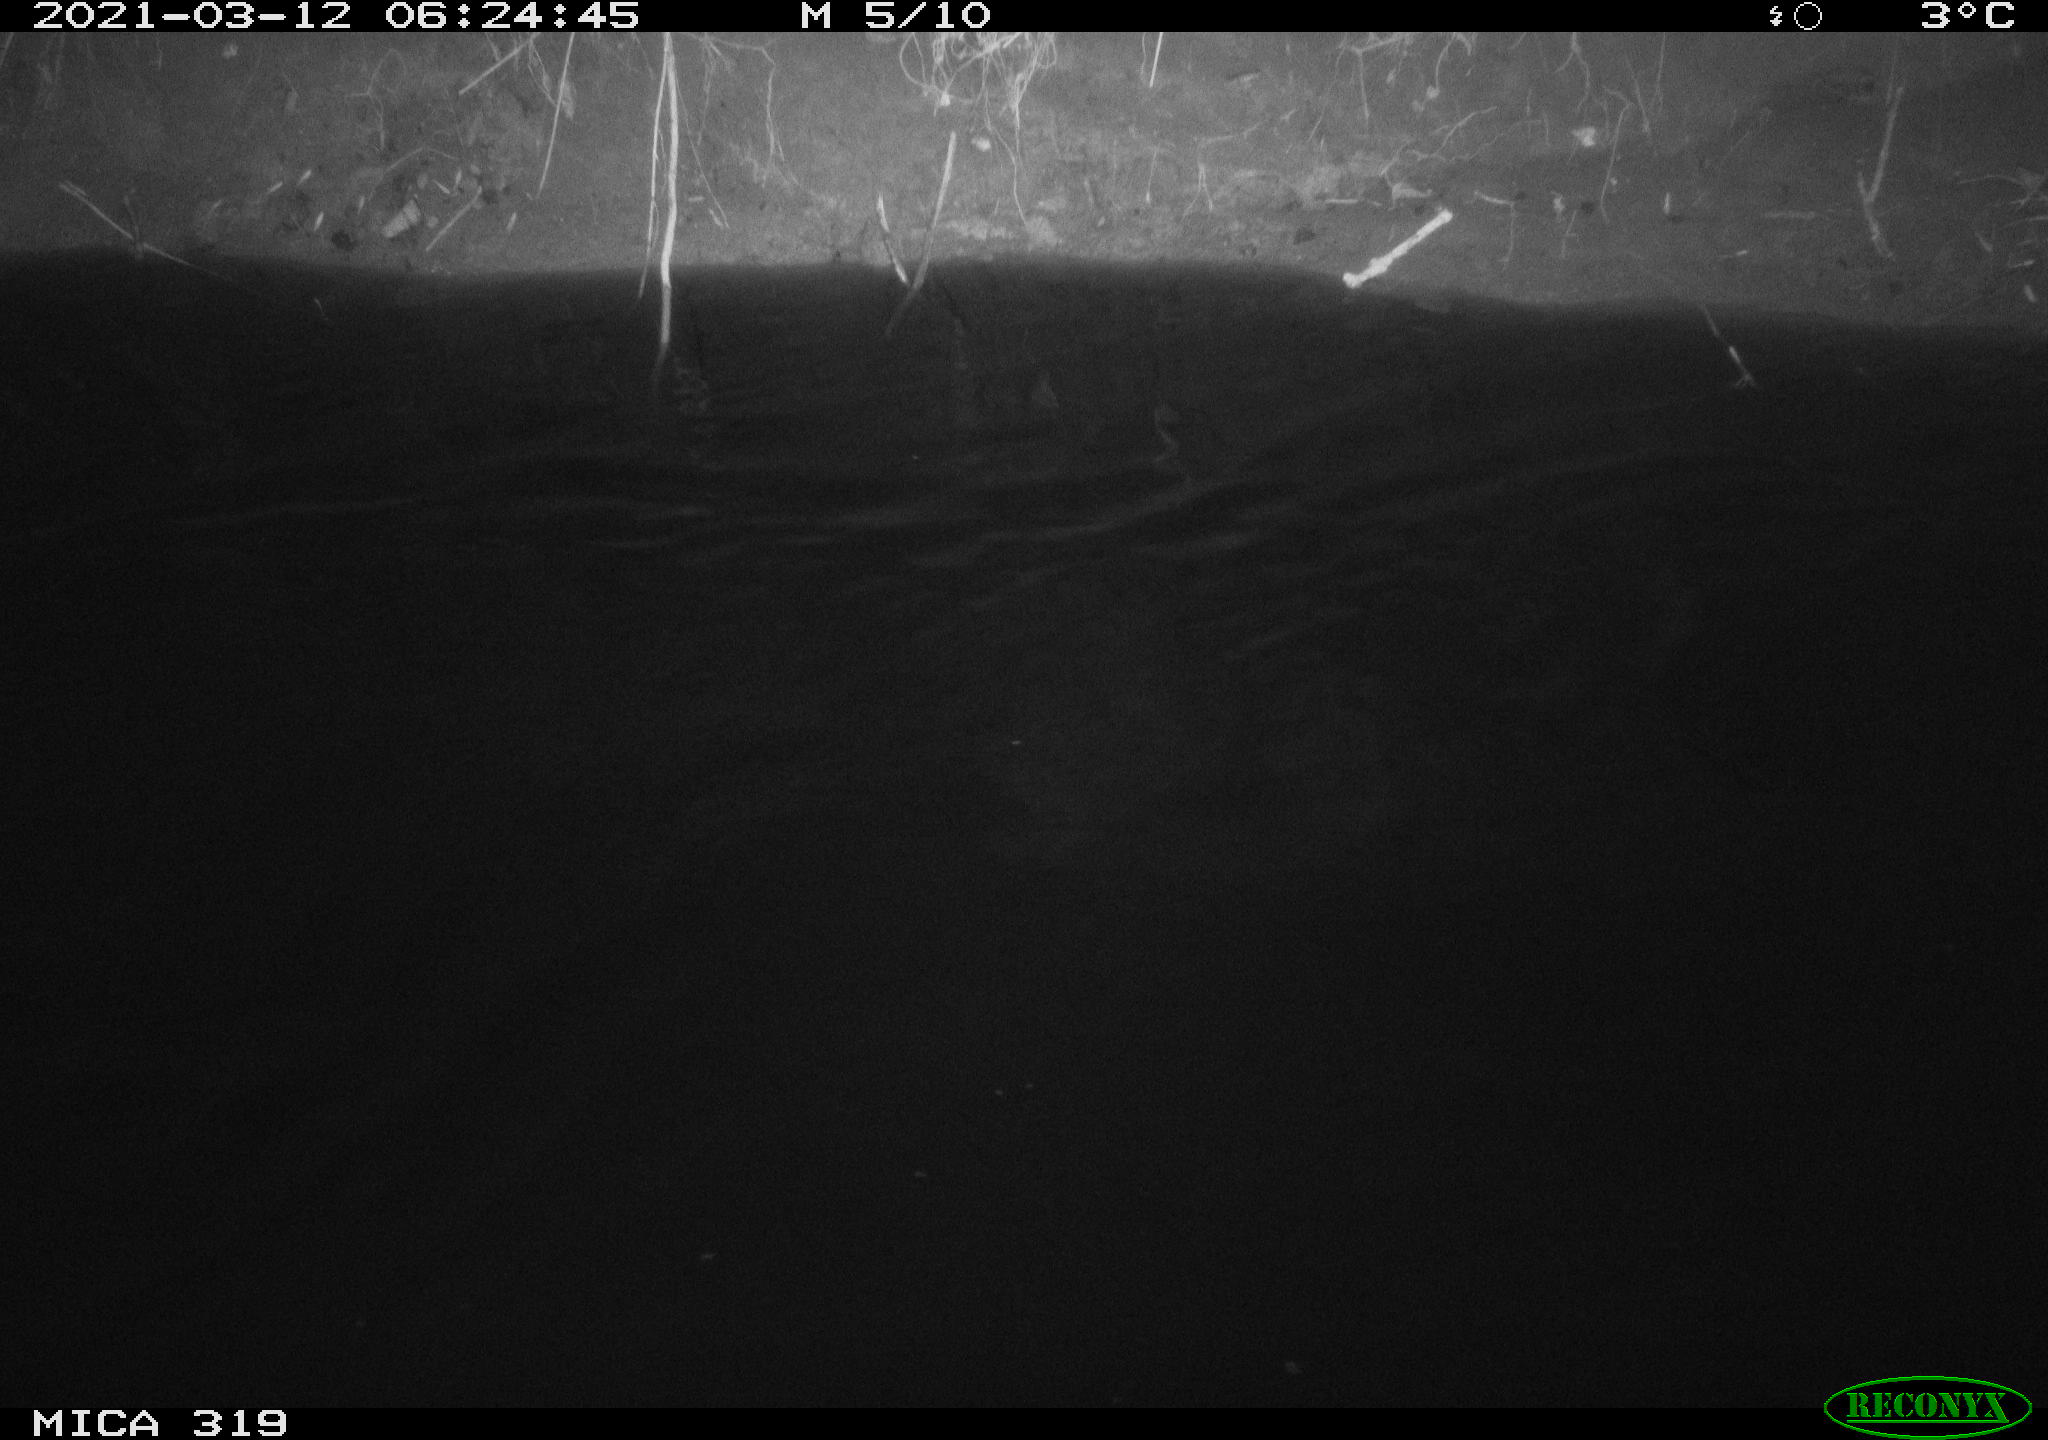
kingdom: Animalia
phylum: Chordata
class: Aves
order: Anseriformes
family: Anatidae
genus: Anas
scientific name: Anas platyrhynchos
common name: Mallard
